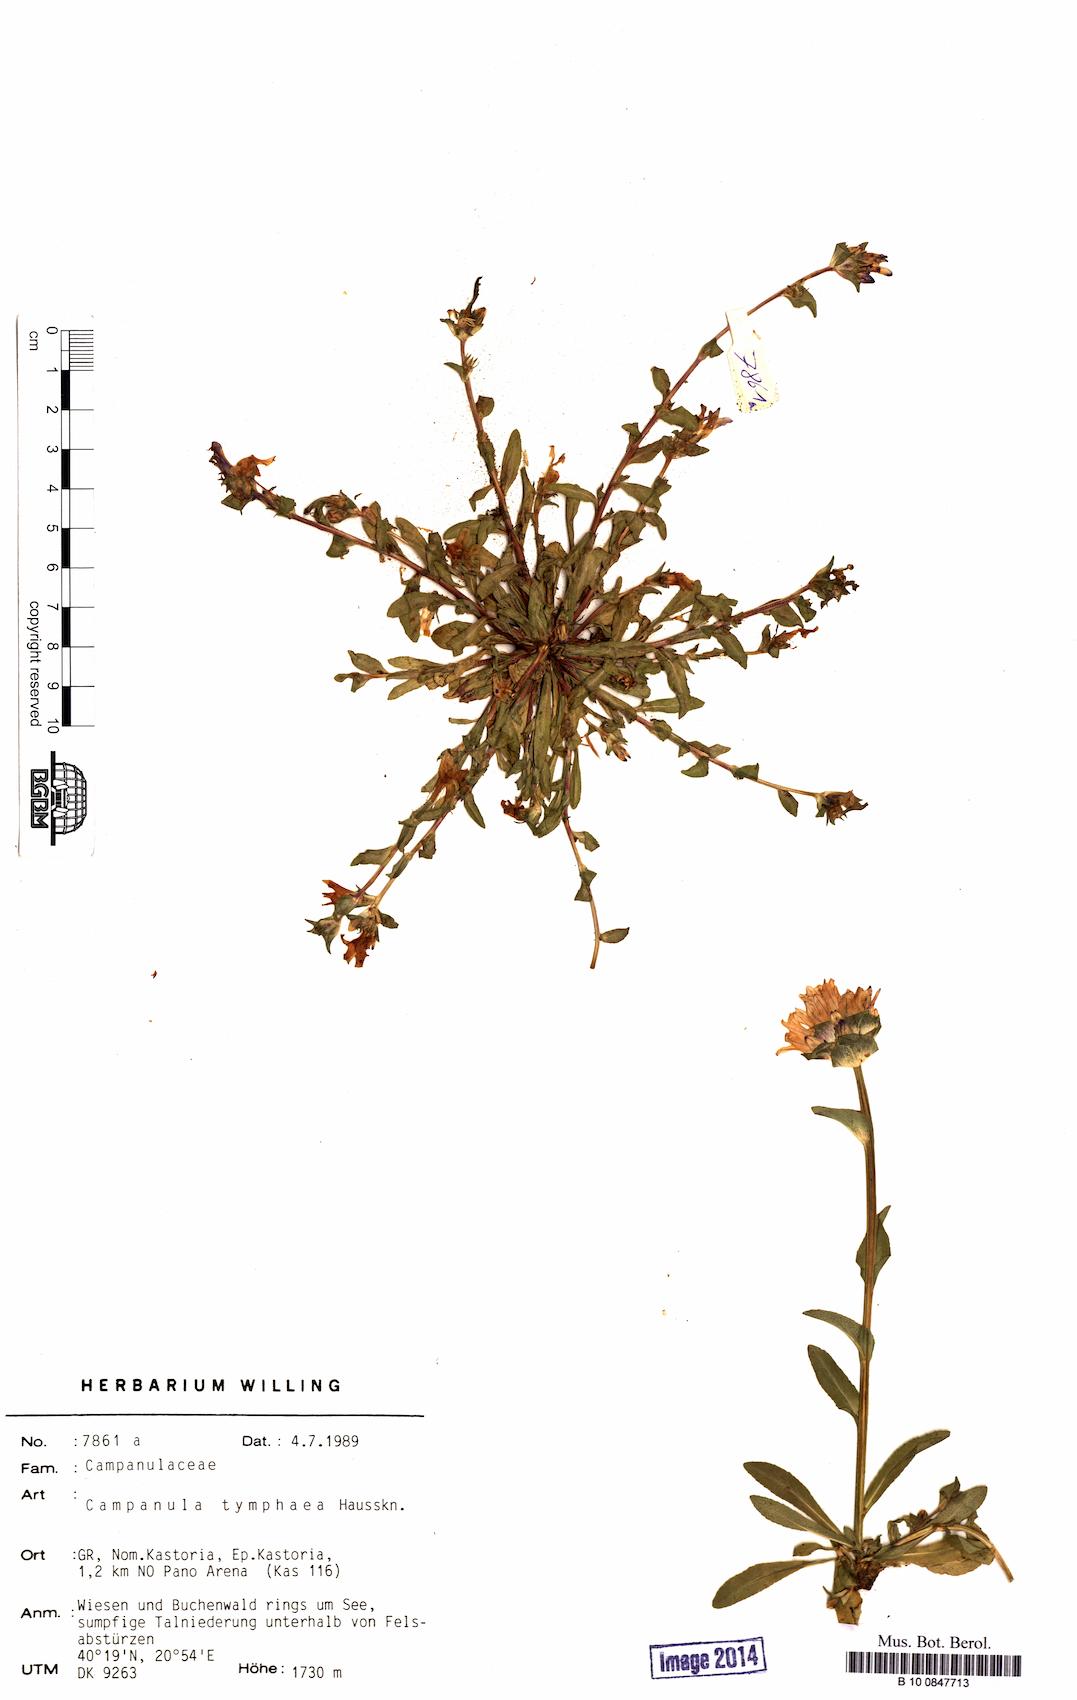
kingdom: Plantae
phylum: Tracheophyta
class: Magnoliopsida
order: Asterales
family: Campanulaceae
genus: Campanula
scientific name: Campanula tymphaea
